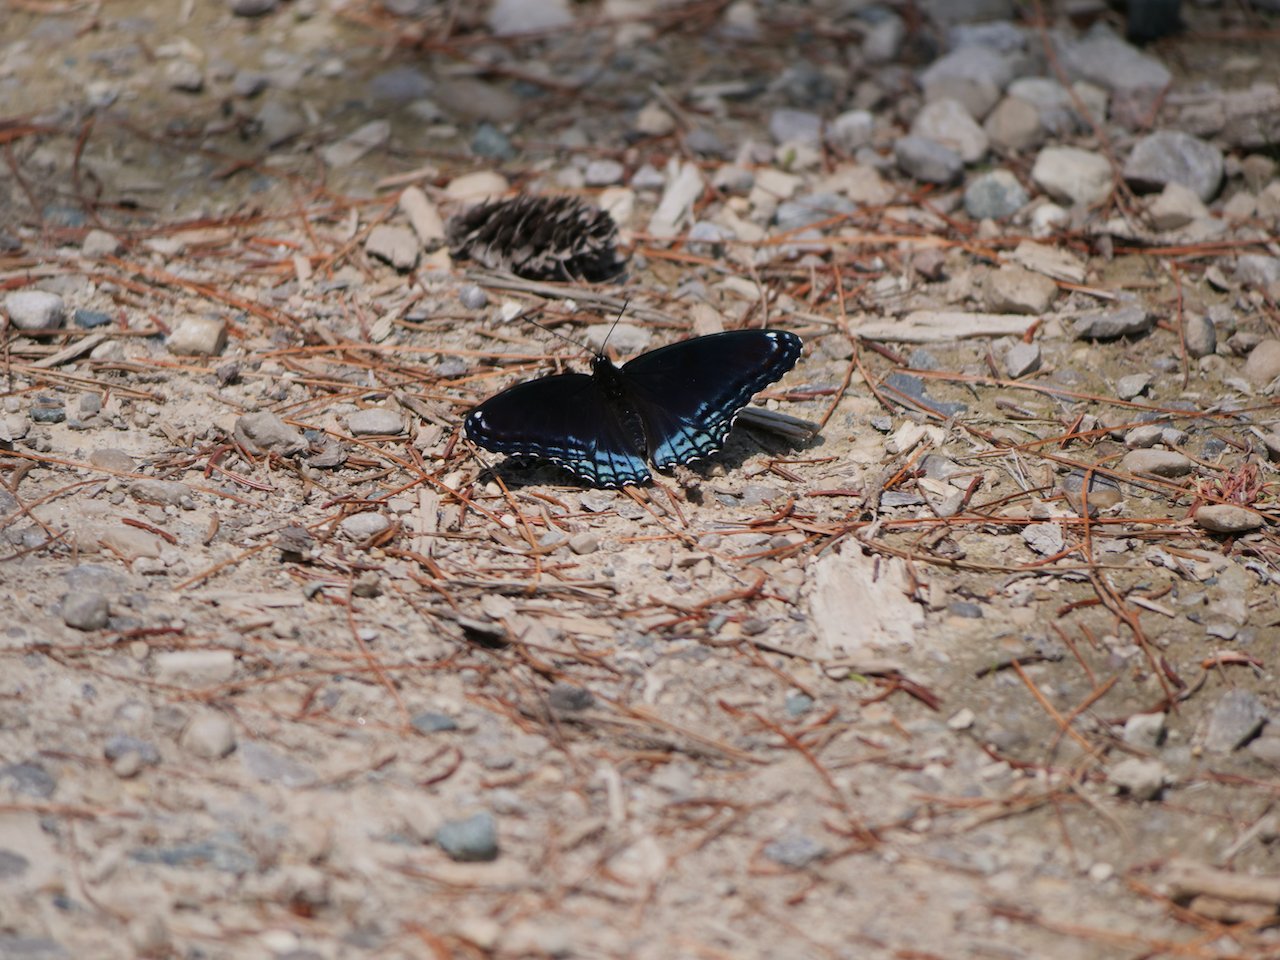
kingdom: Animalia
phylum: Arthropoda
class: Insecta
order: Lepidoptera
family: Nymphalidae
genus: Limenitis
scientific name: Limenitis astyanax
